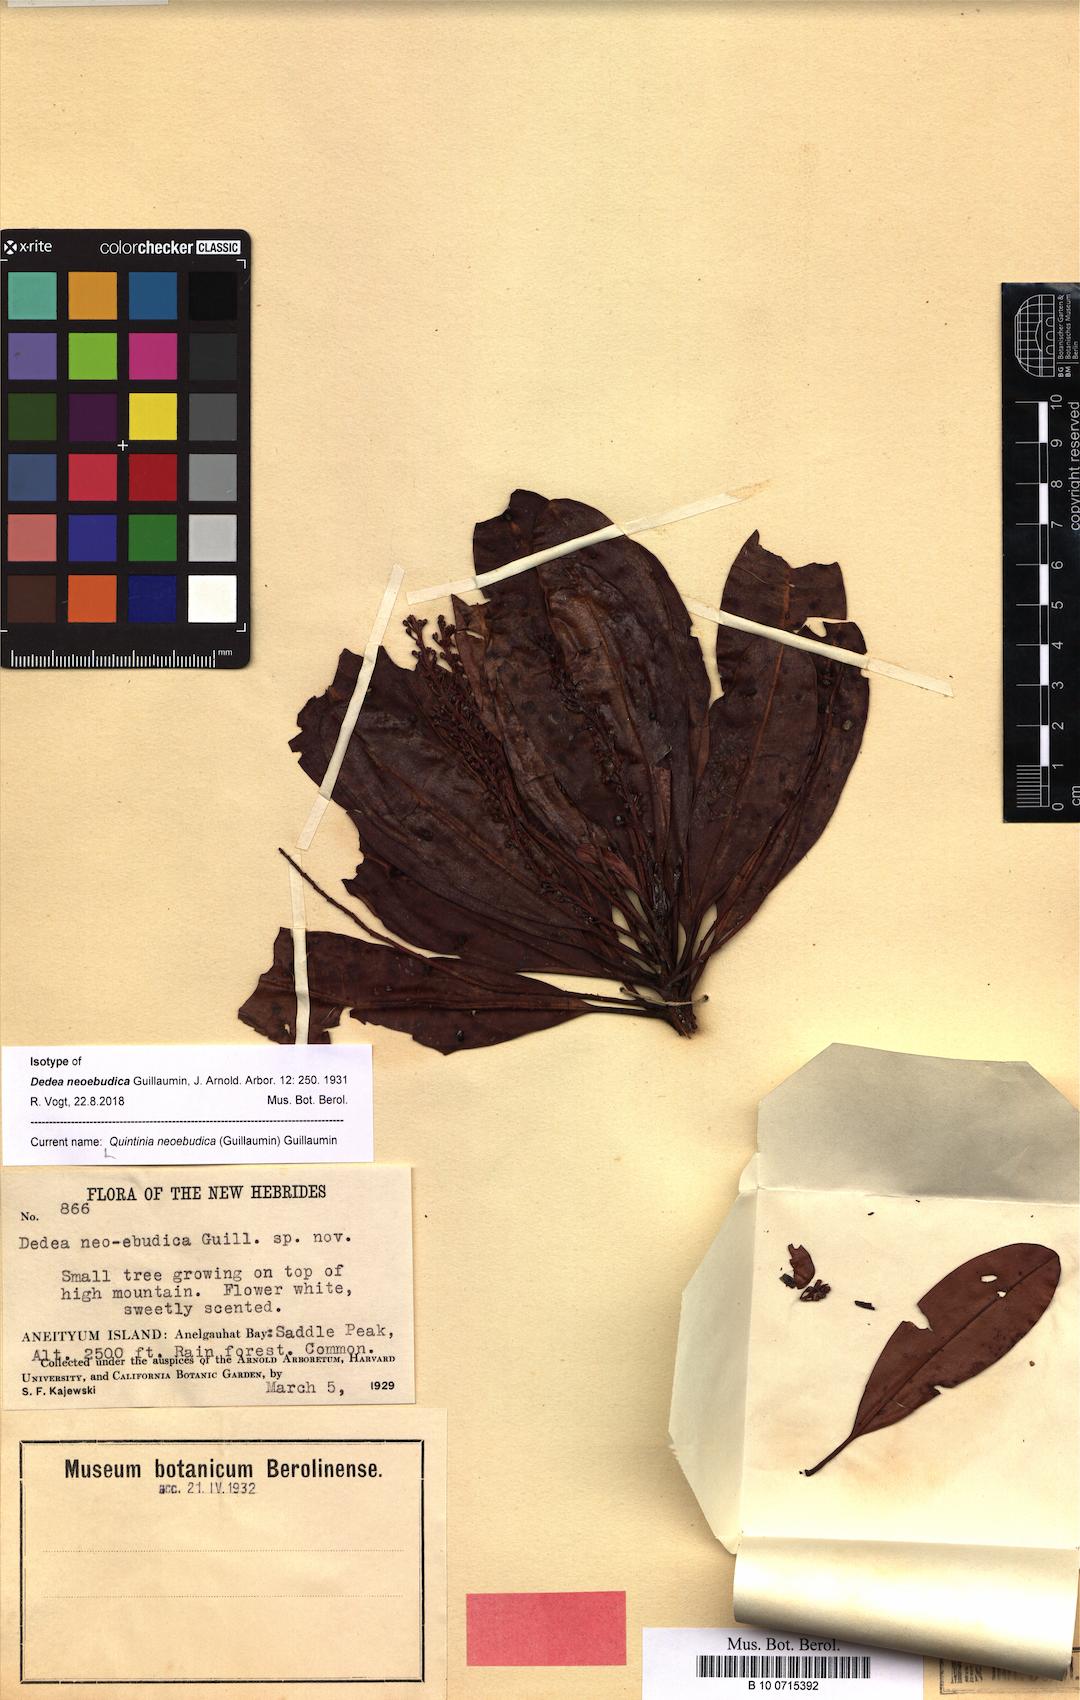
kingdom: Plantae
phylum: Tracheophyta
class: Magnoliopsida
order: Paracryphiales
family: Paracryphiaceae
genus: Quintinia
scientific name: Quintinia media
